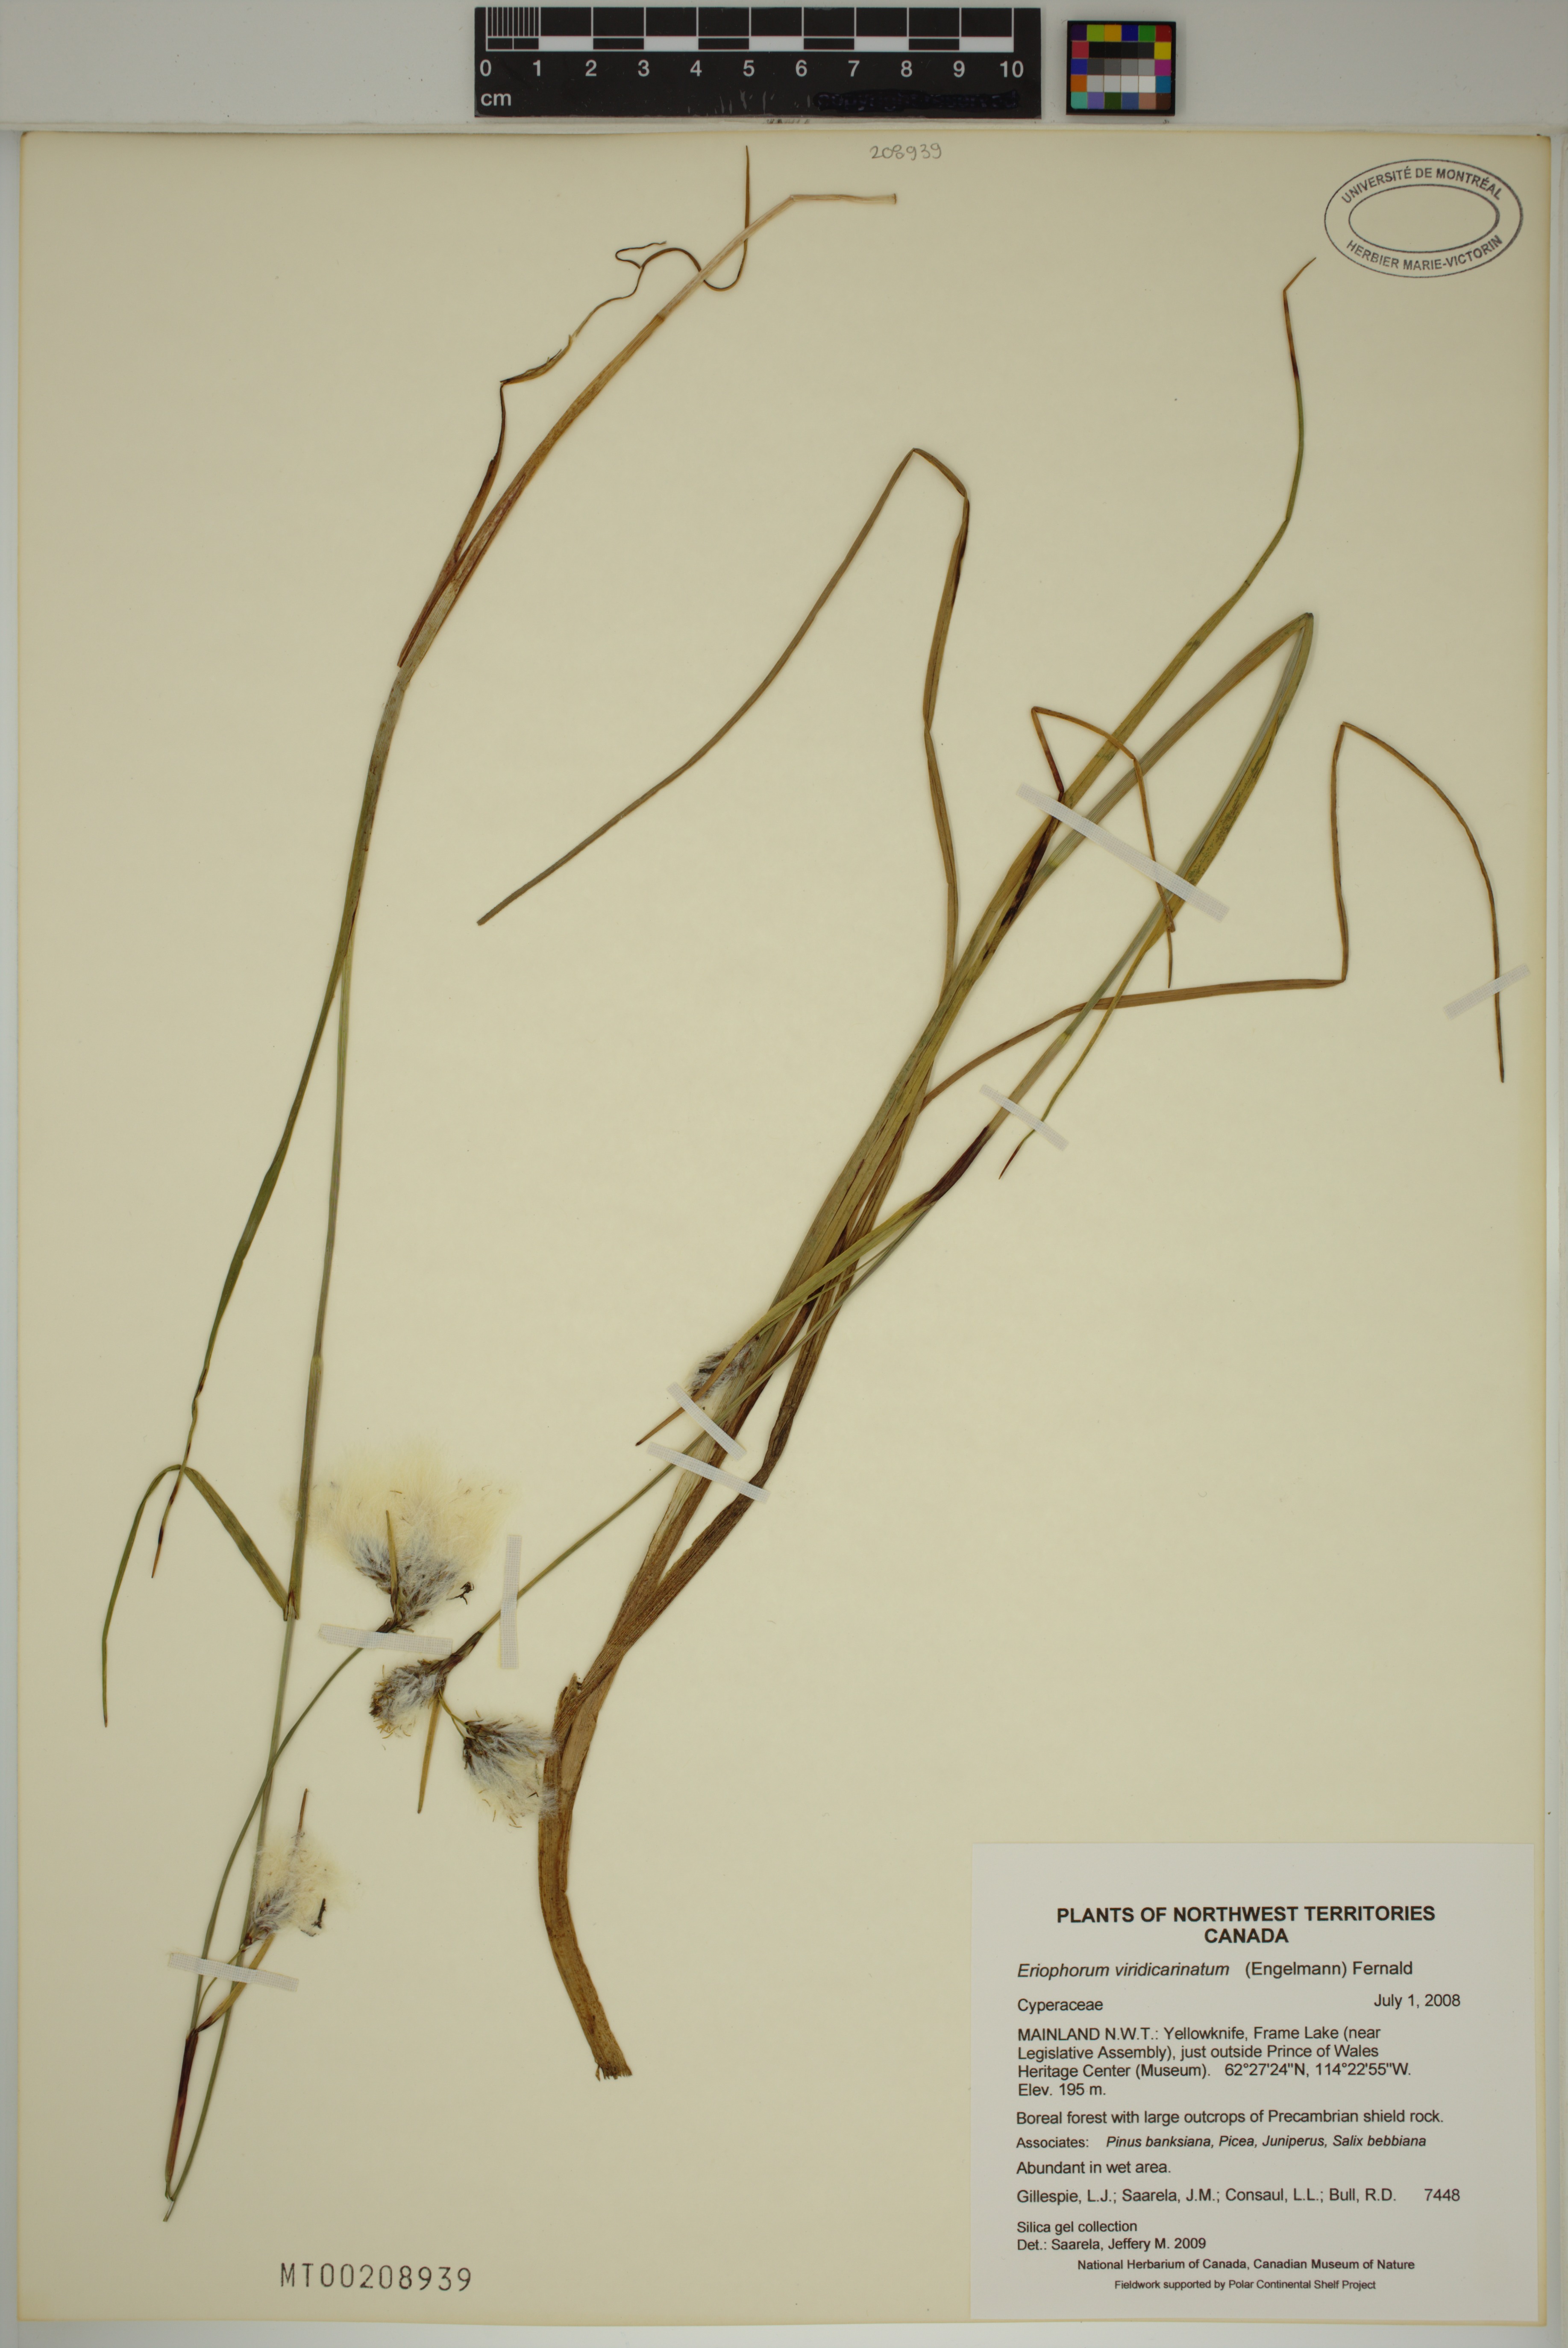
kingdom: Plantae
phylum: Tracheophyta
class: Liliopsida
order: Poales
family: Cyperaceae
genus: Eriophorum
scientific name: Eriophorum viridicarinatum
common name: Green-keeled cottongrass
